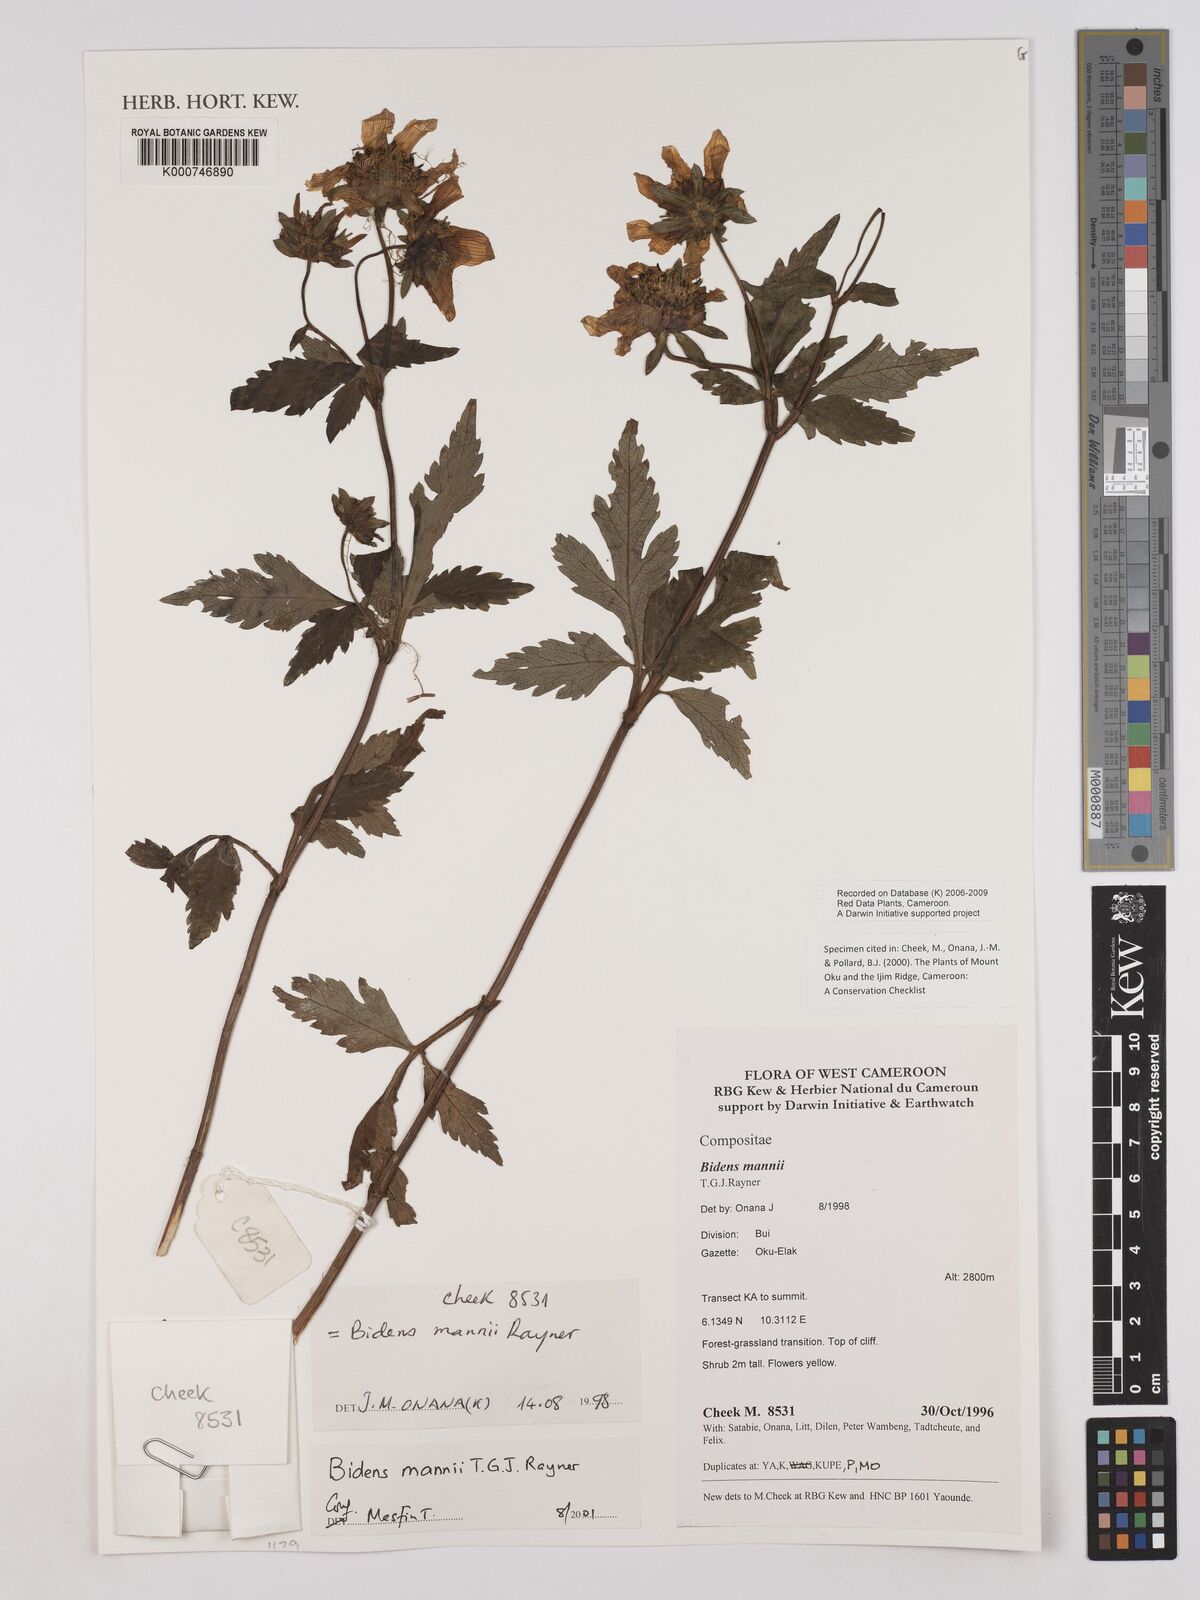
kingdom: Plantae
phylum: Tracheophyta
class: Magnoliopsida
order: Asterales
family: Asteraceae
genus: Bidens
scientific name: Bidens mannii
